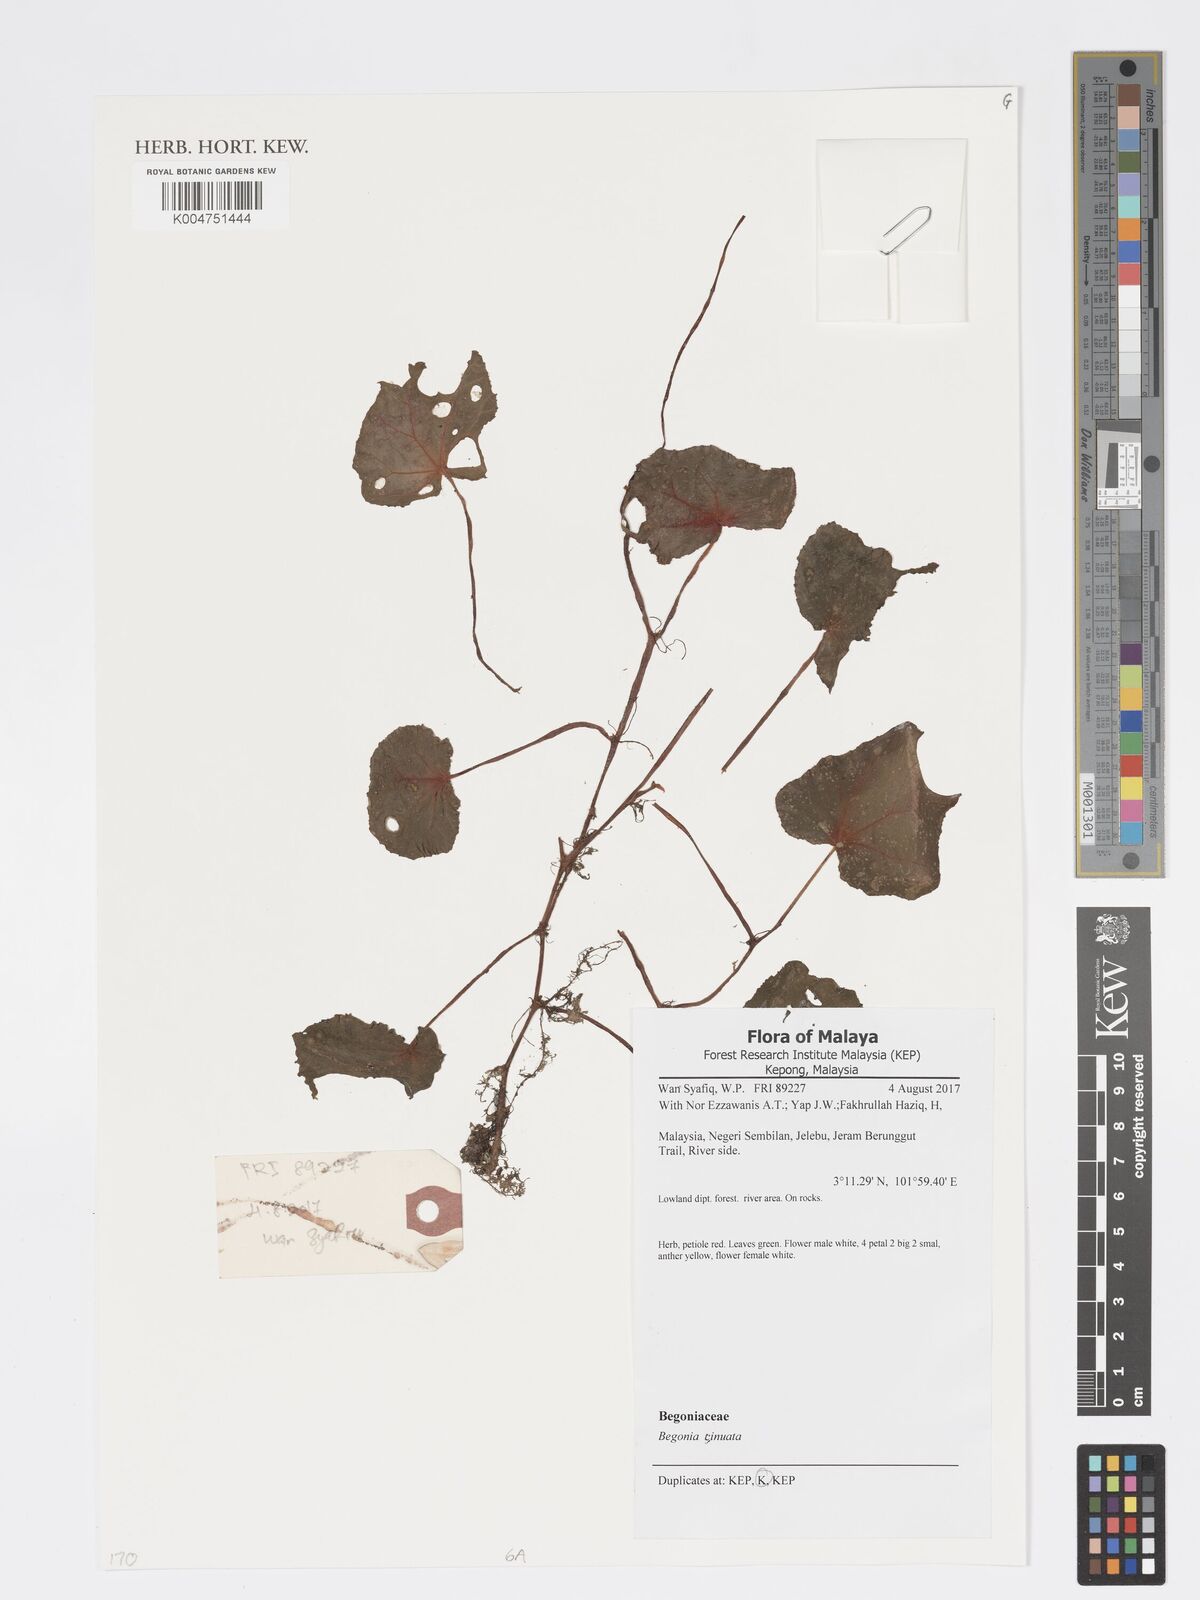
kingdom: Plantae
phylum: Tracheophyta
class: Magnoliopsida
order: Cucurbitales
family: Begoniaceae
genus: Begonia
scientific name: Begonia
